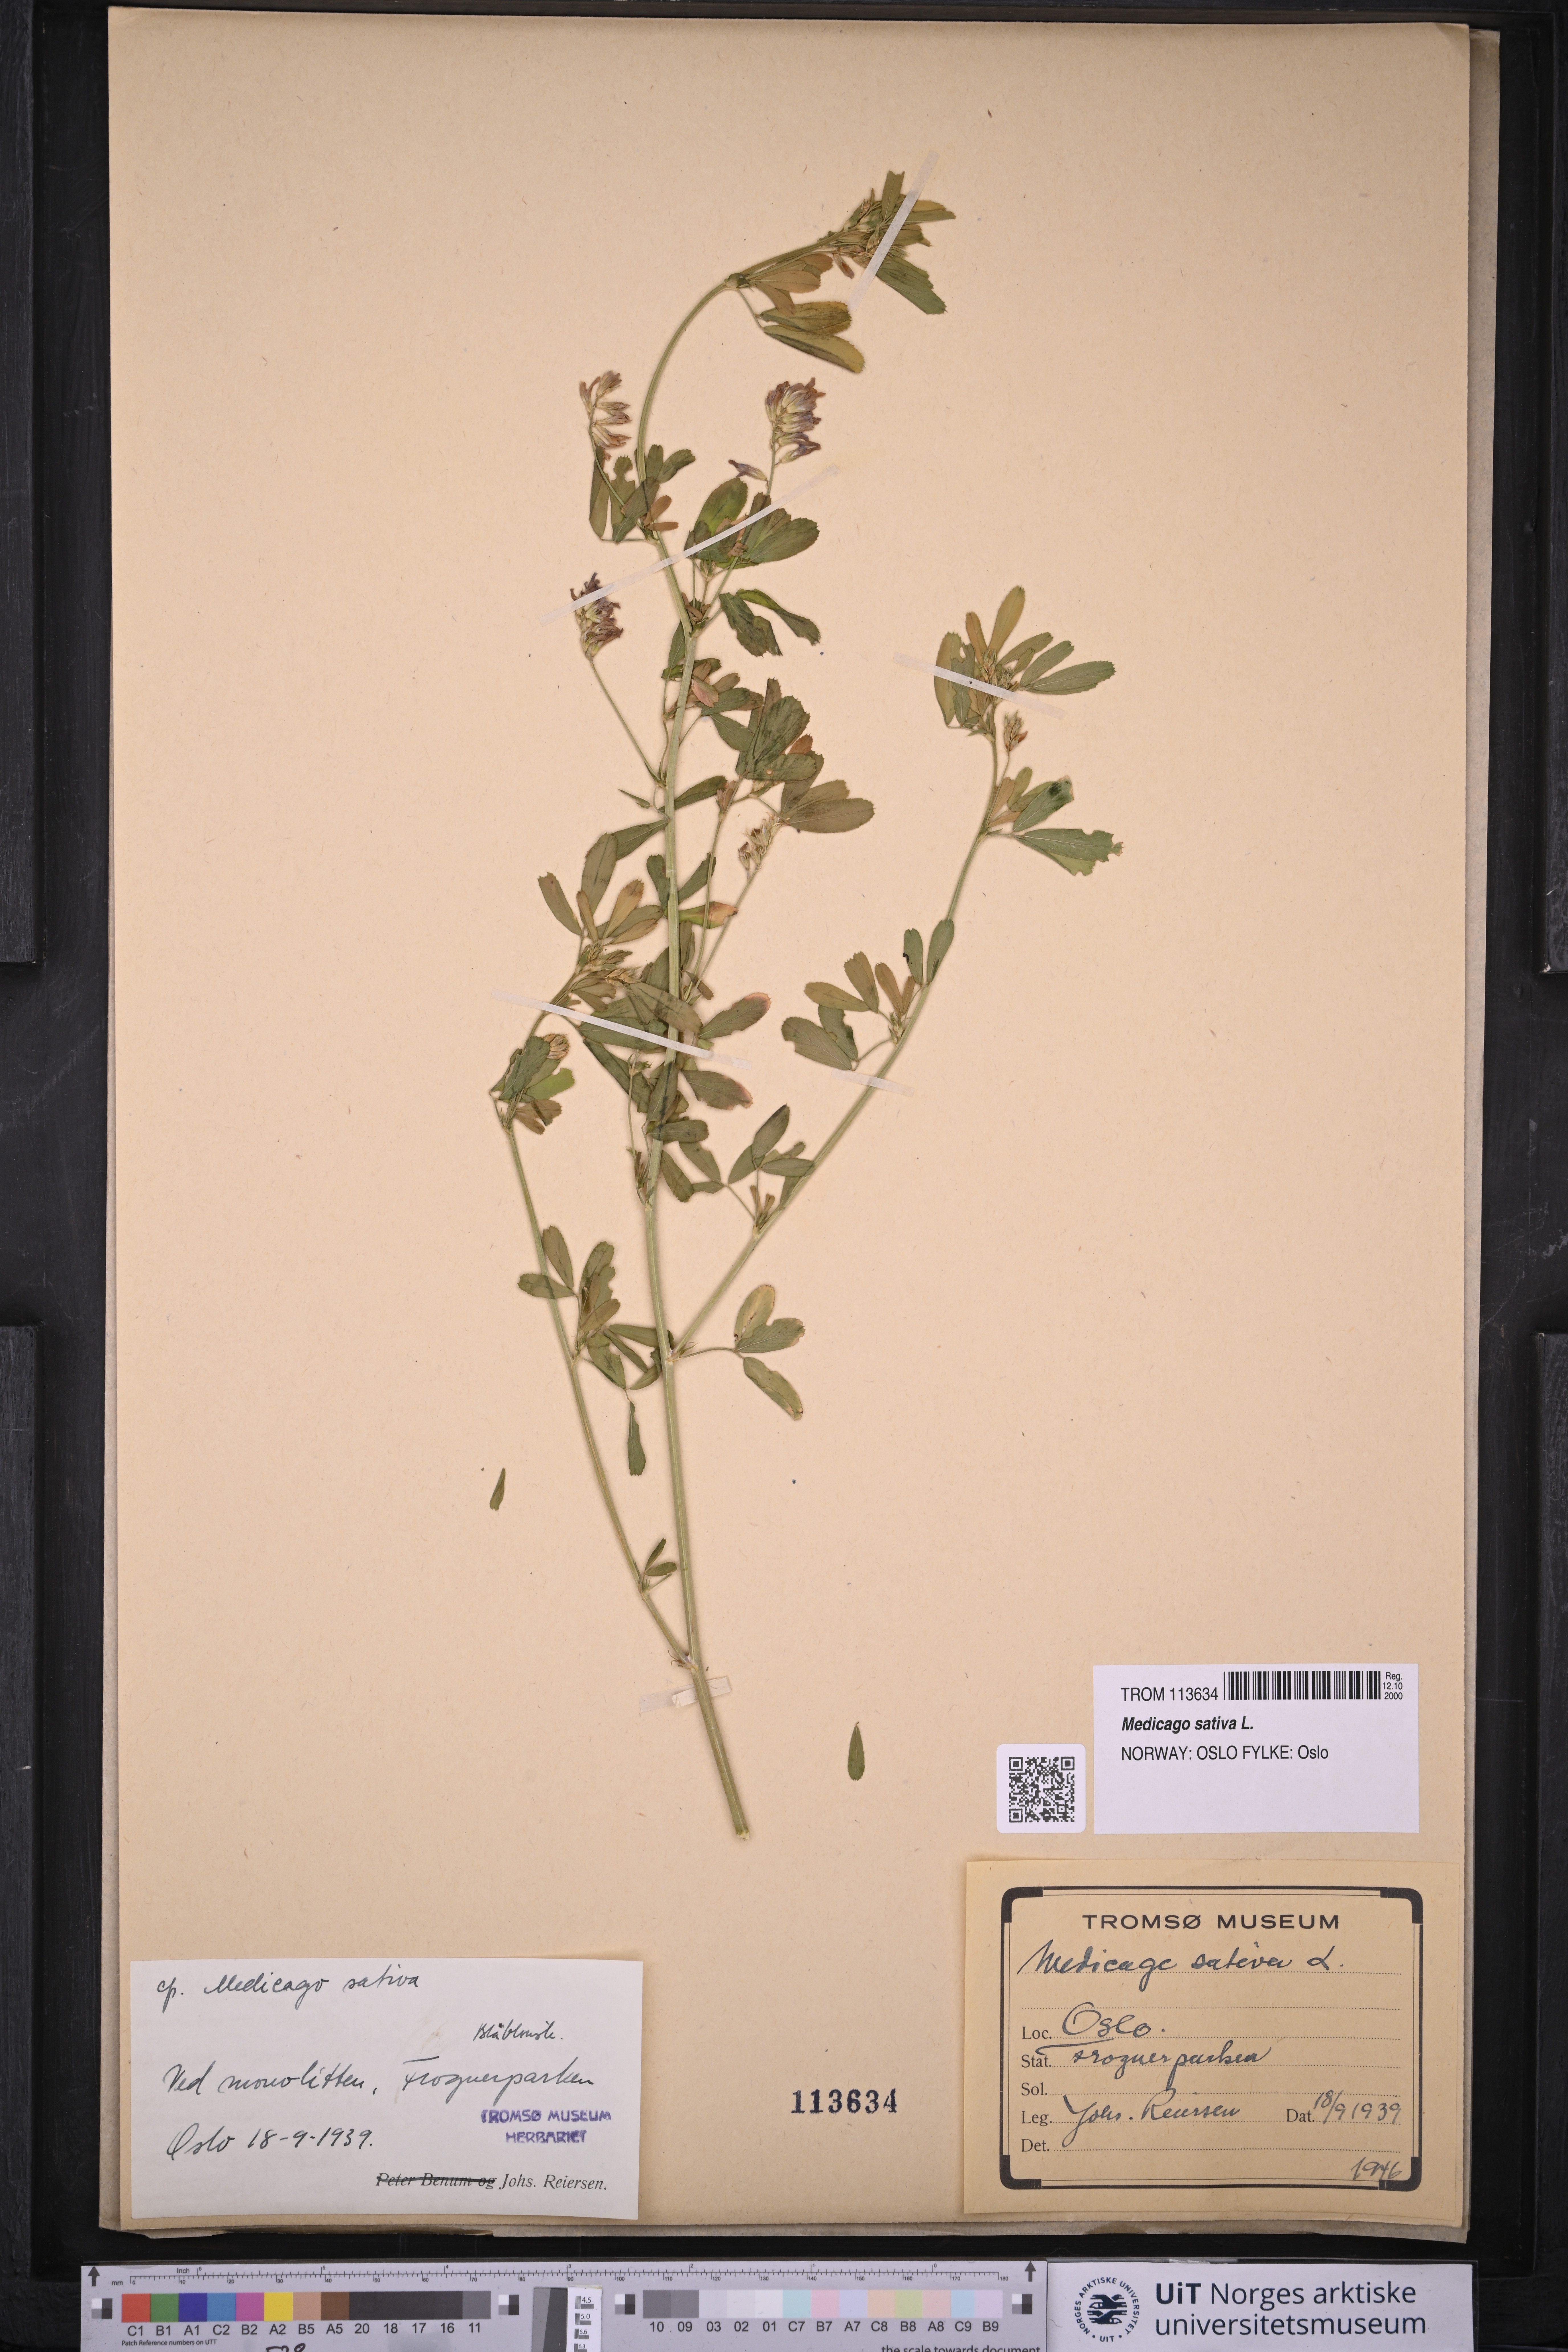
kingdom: Plantae
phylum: Tracheophyta
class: Magnoliopsida
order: Fabales
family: Fabaceae
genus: Medicago
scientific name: Medicago sativa
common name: Alfalfa
